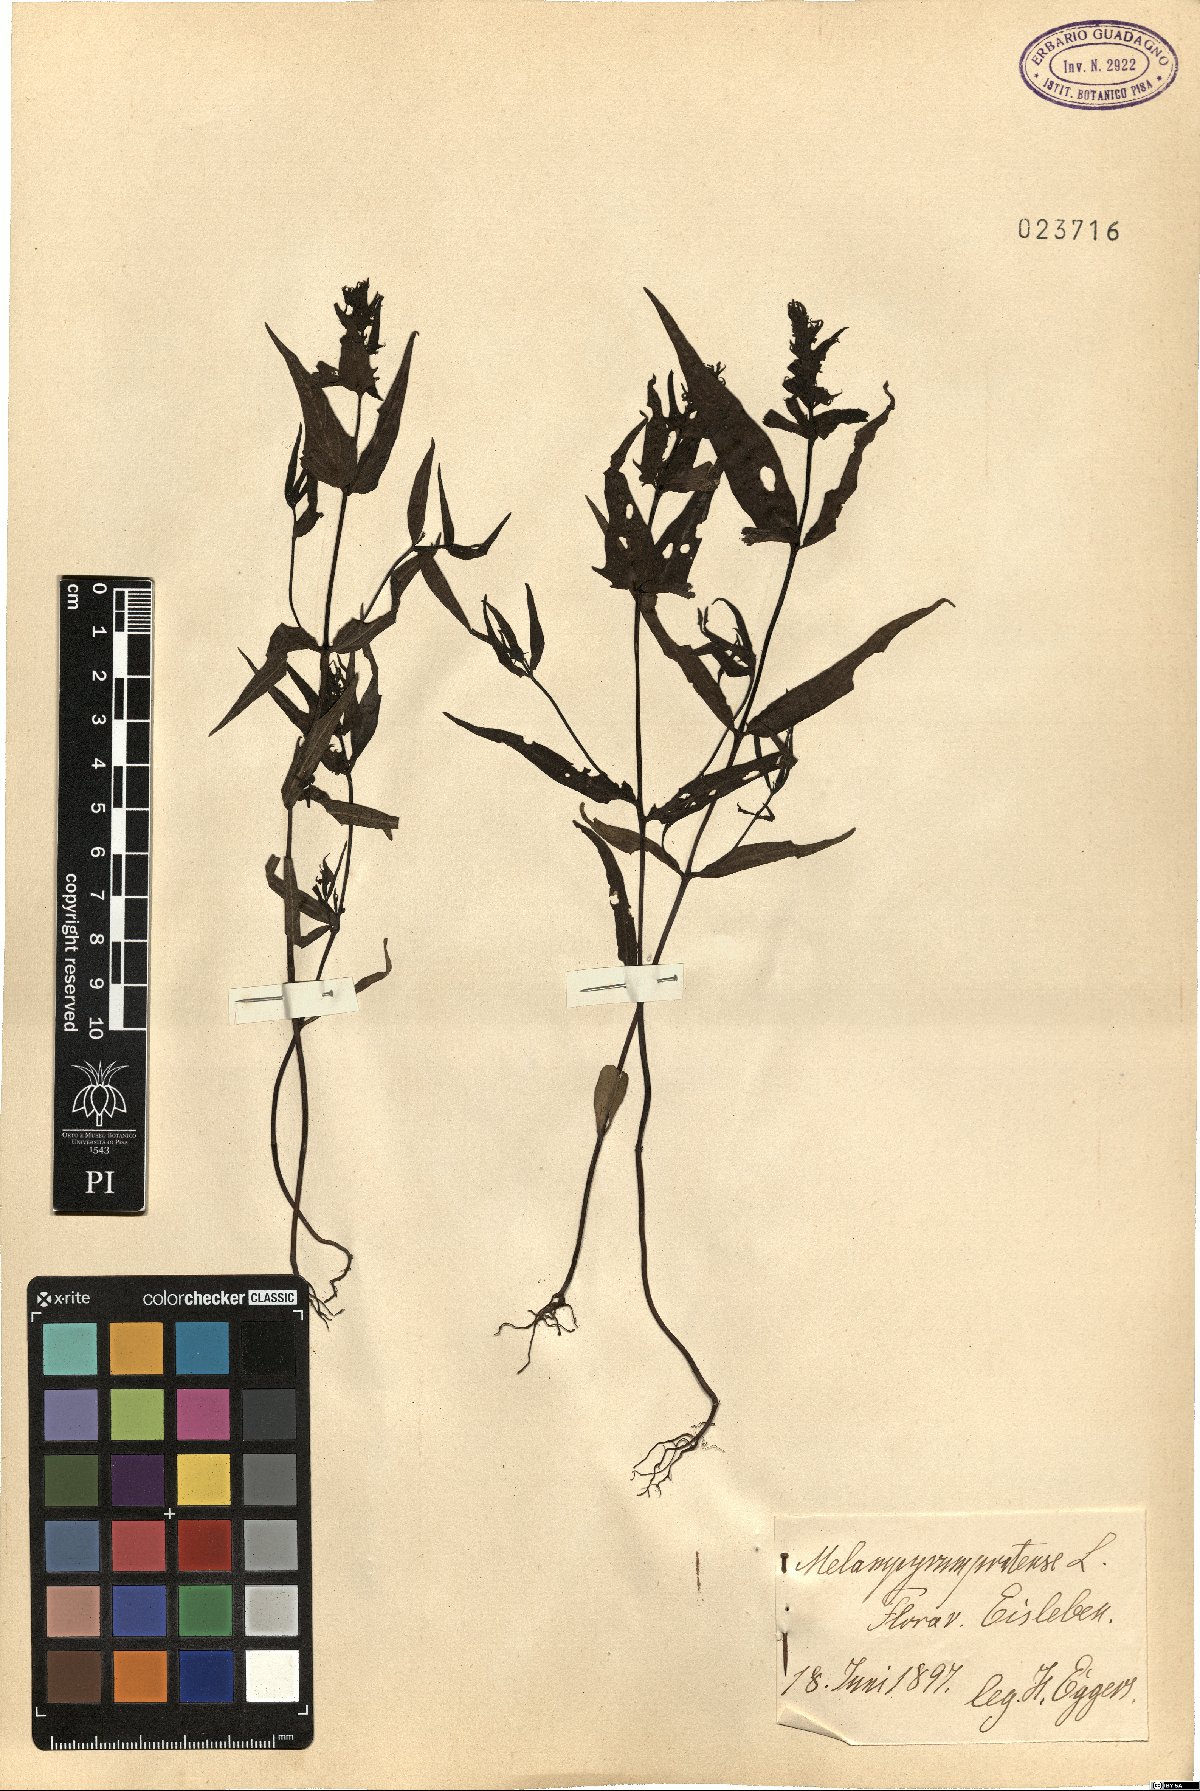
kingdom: Plantae
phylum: Tracheophyta
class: Magnoliopsida
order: Lamiales
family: Orobanchaceae
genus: Melampyrum
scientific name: Melampyrum pratense
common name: Common cow-wheat
